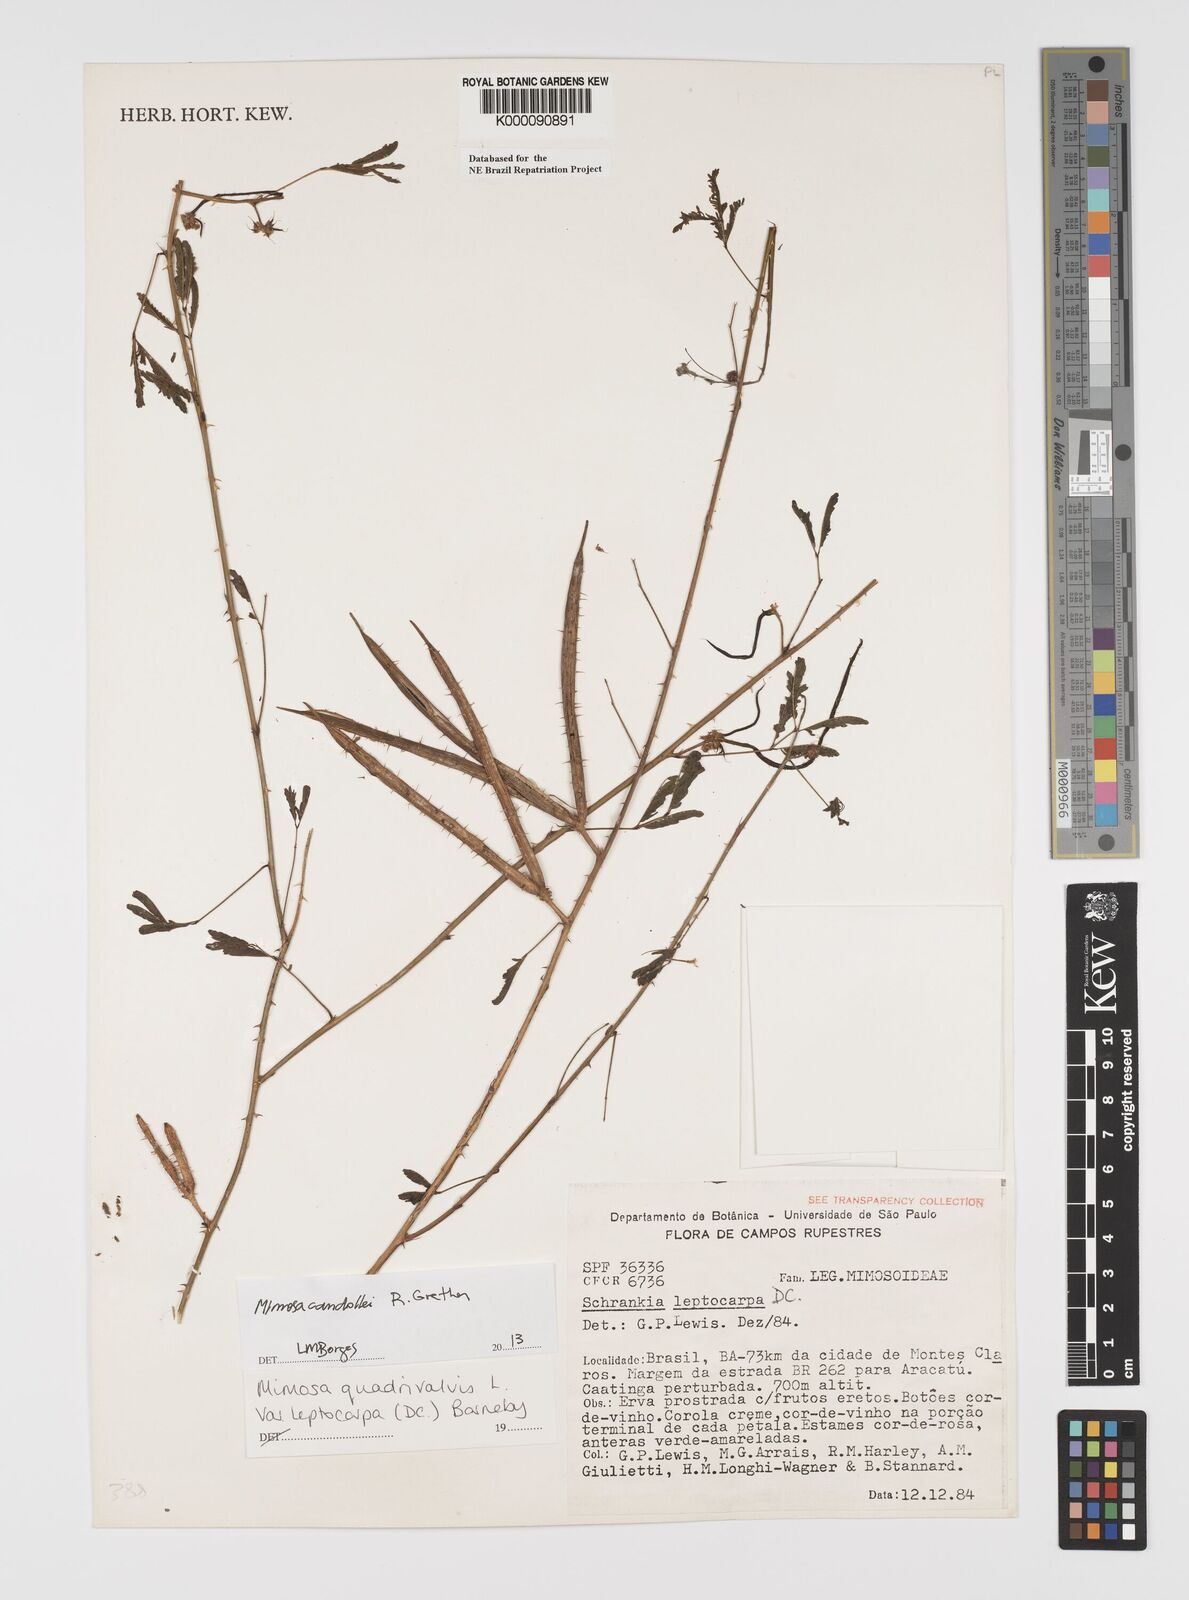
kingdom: Plantae
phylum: Tracheophyta
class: Magnoliopsida
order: Fabales
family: Fabaceae
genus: Mimosa
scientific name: Mimosa candollei
